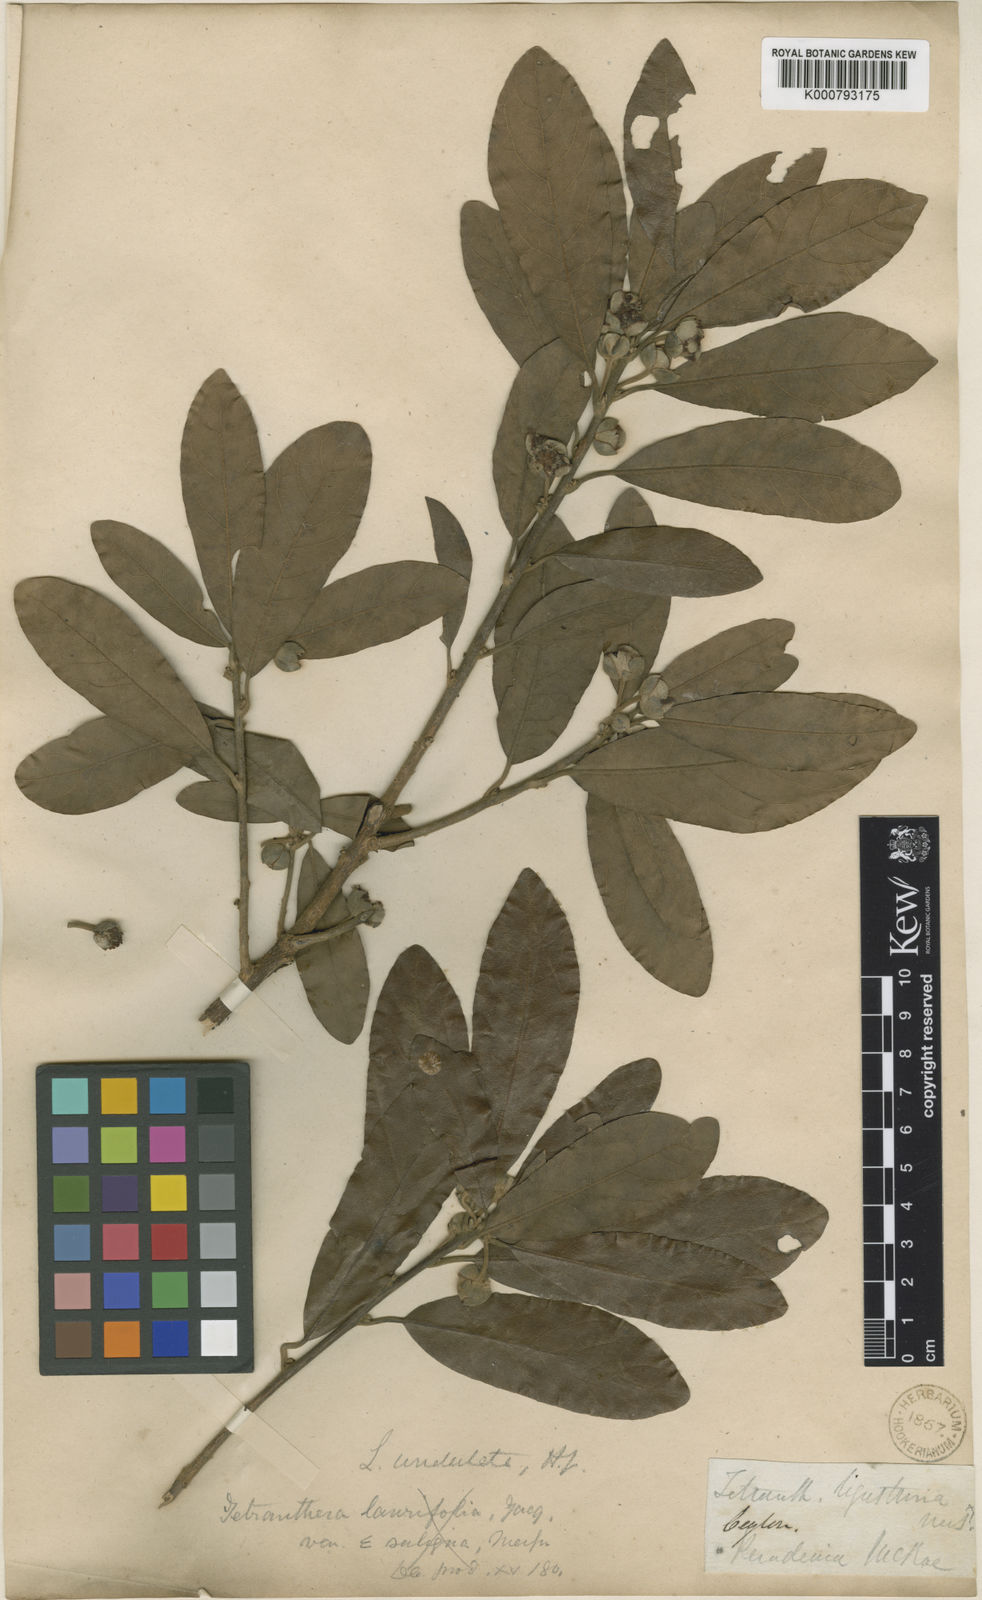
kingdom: Plantae
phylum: Tracheophyta
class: Magnoliopsida
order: Laurales
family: Lauraceae
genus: Litsea
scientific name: Litsea ligustrina
